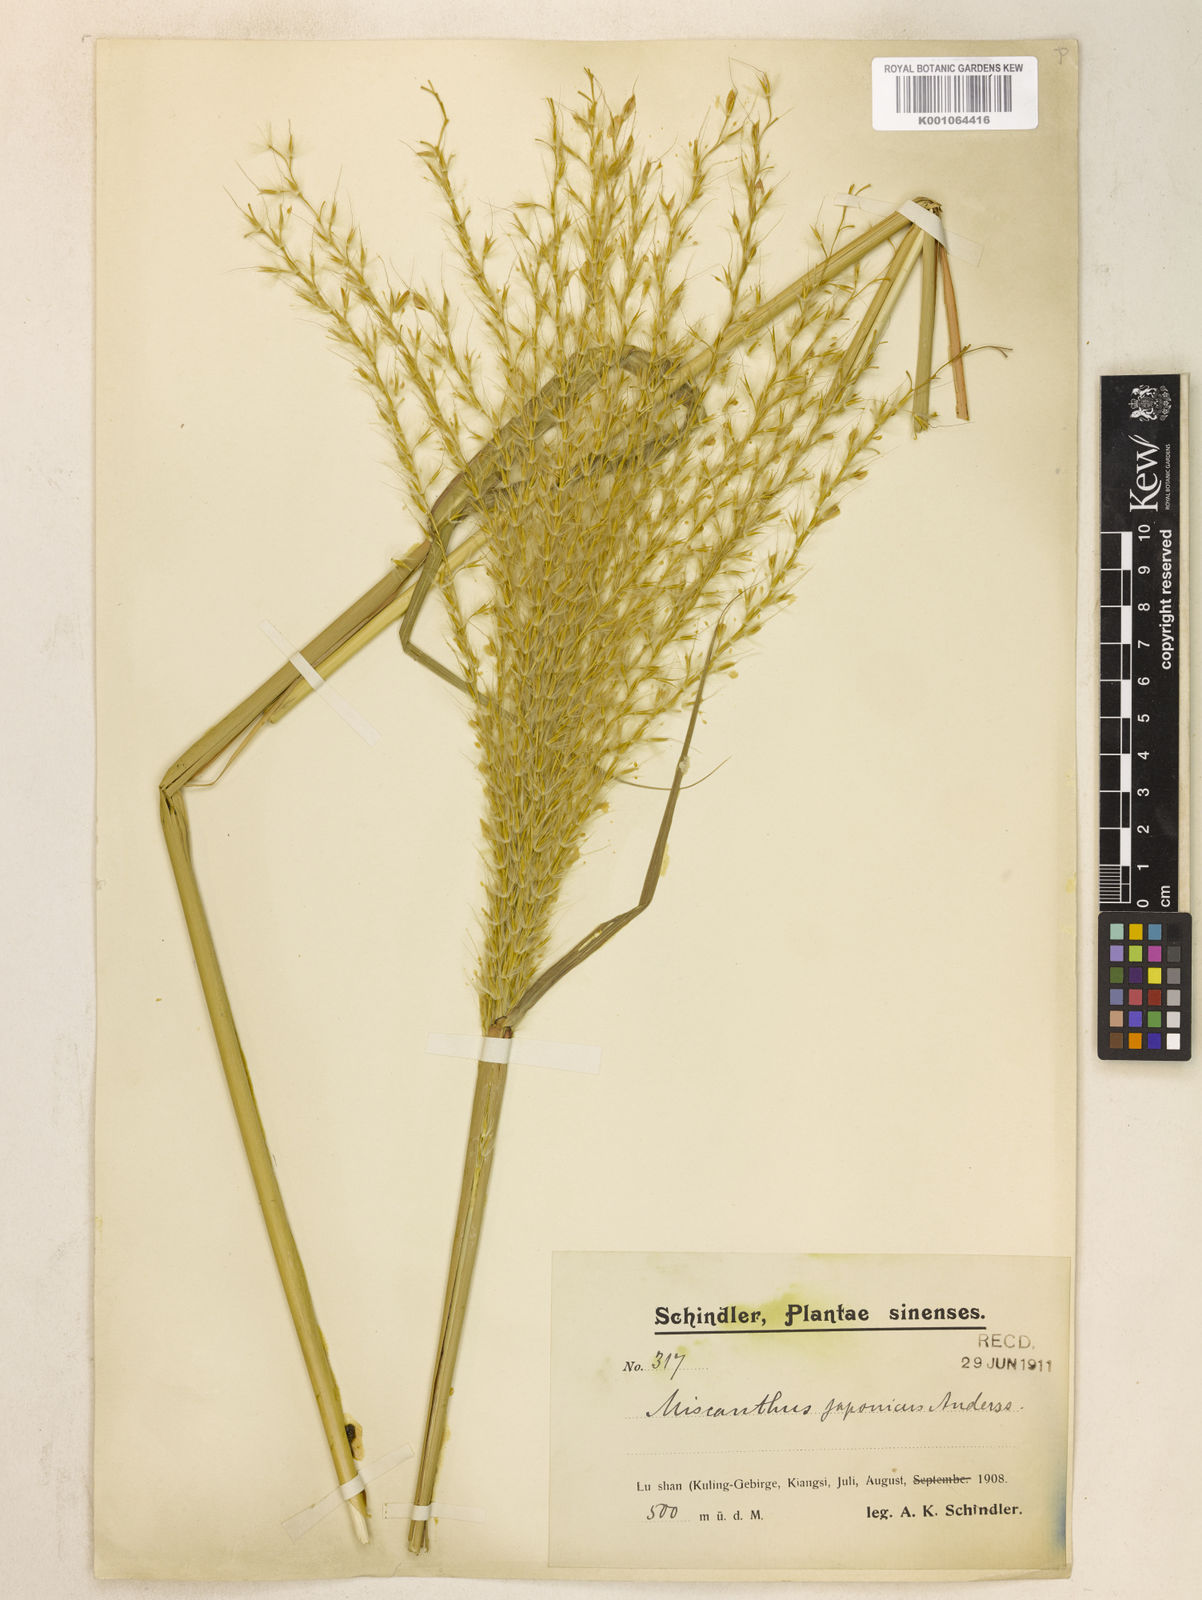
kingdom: Plantae
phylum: Tracheophyta
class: Liliopsida
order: Poales
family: Poaceae
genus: Miscanthus
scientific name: Miscanthus sinensis
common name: Chinese silvergrass
